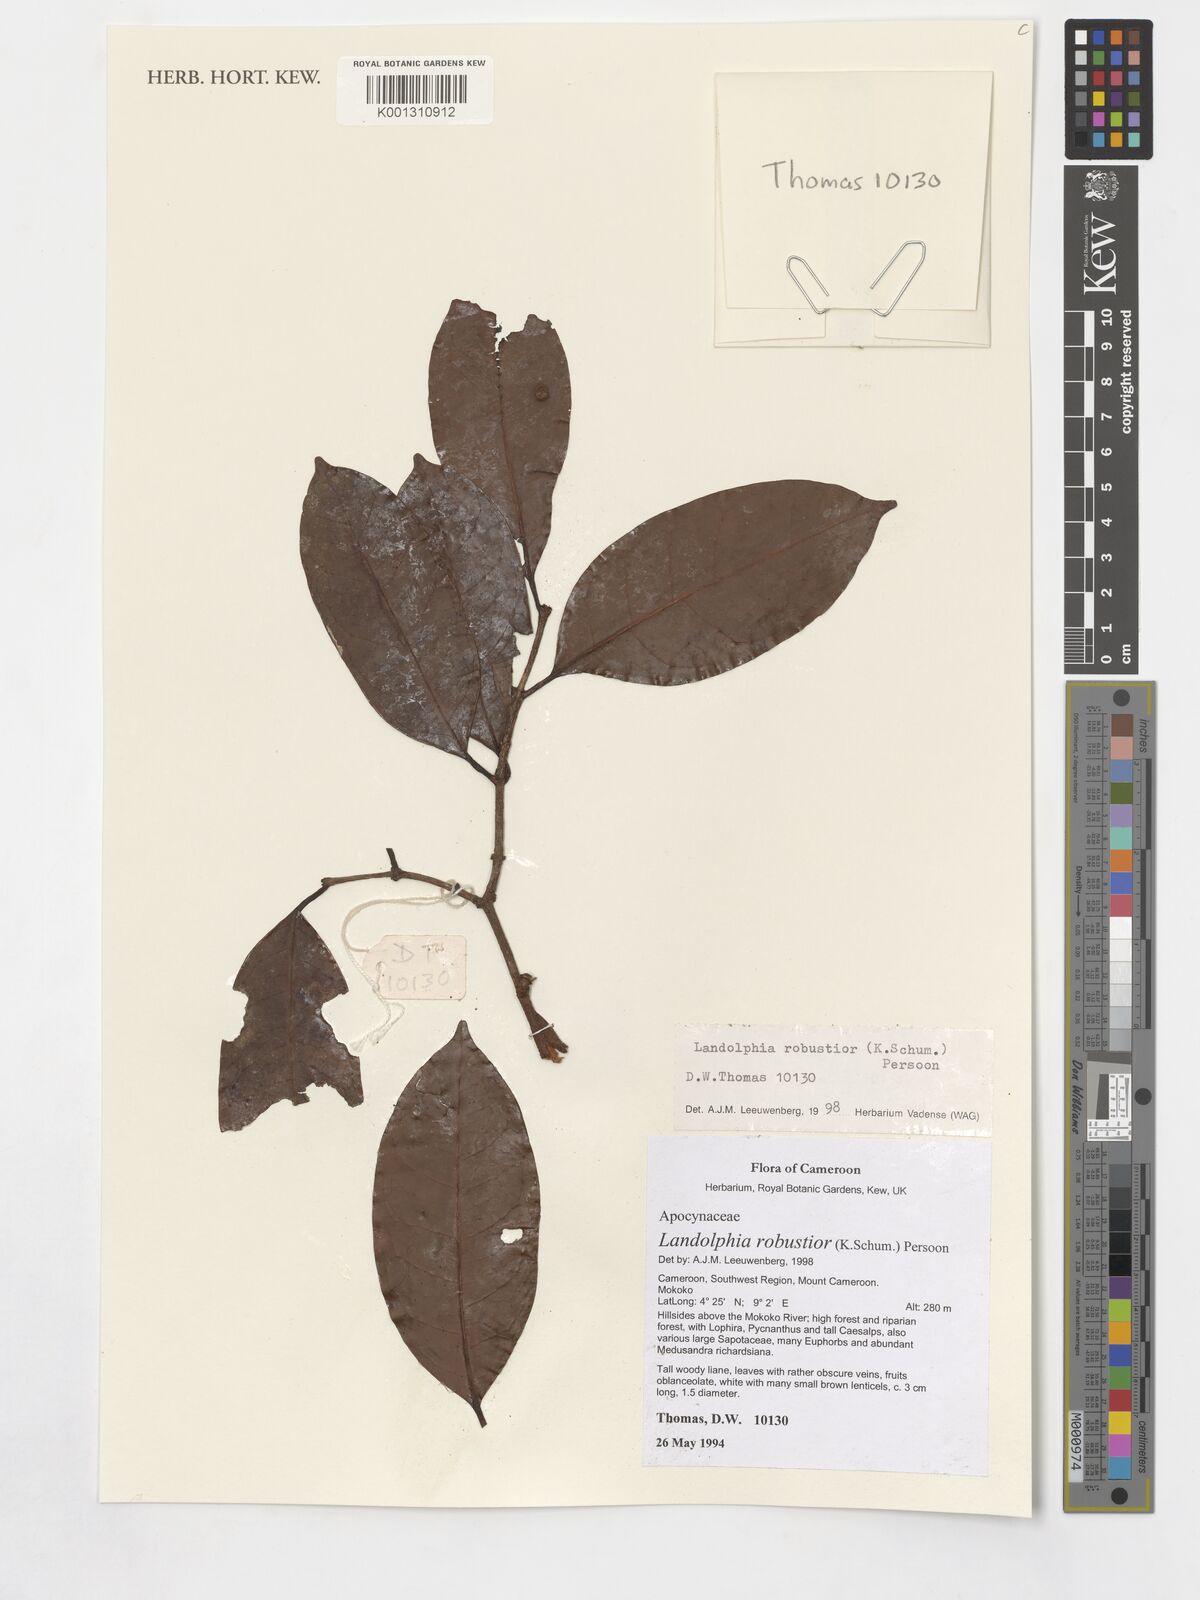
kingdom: Plantae
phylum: Tracheophyta
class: Magnoliopsida
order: Gentianales
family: Apocynaceae
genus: Landolphia
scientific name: Landolphia robustior
